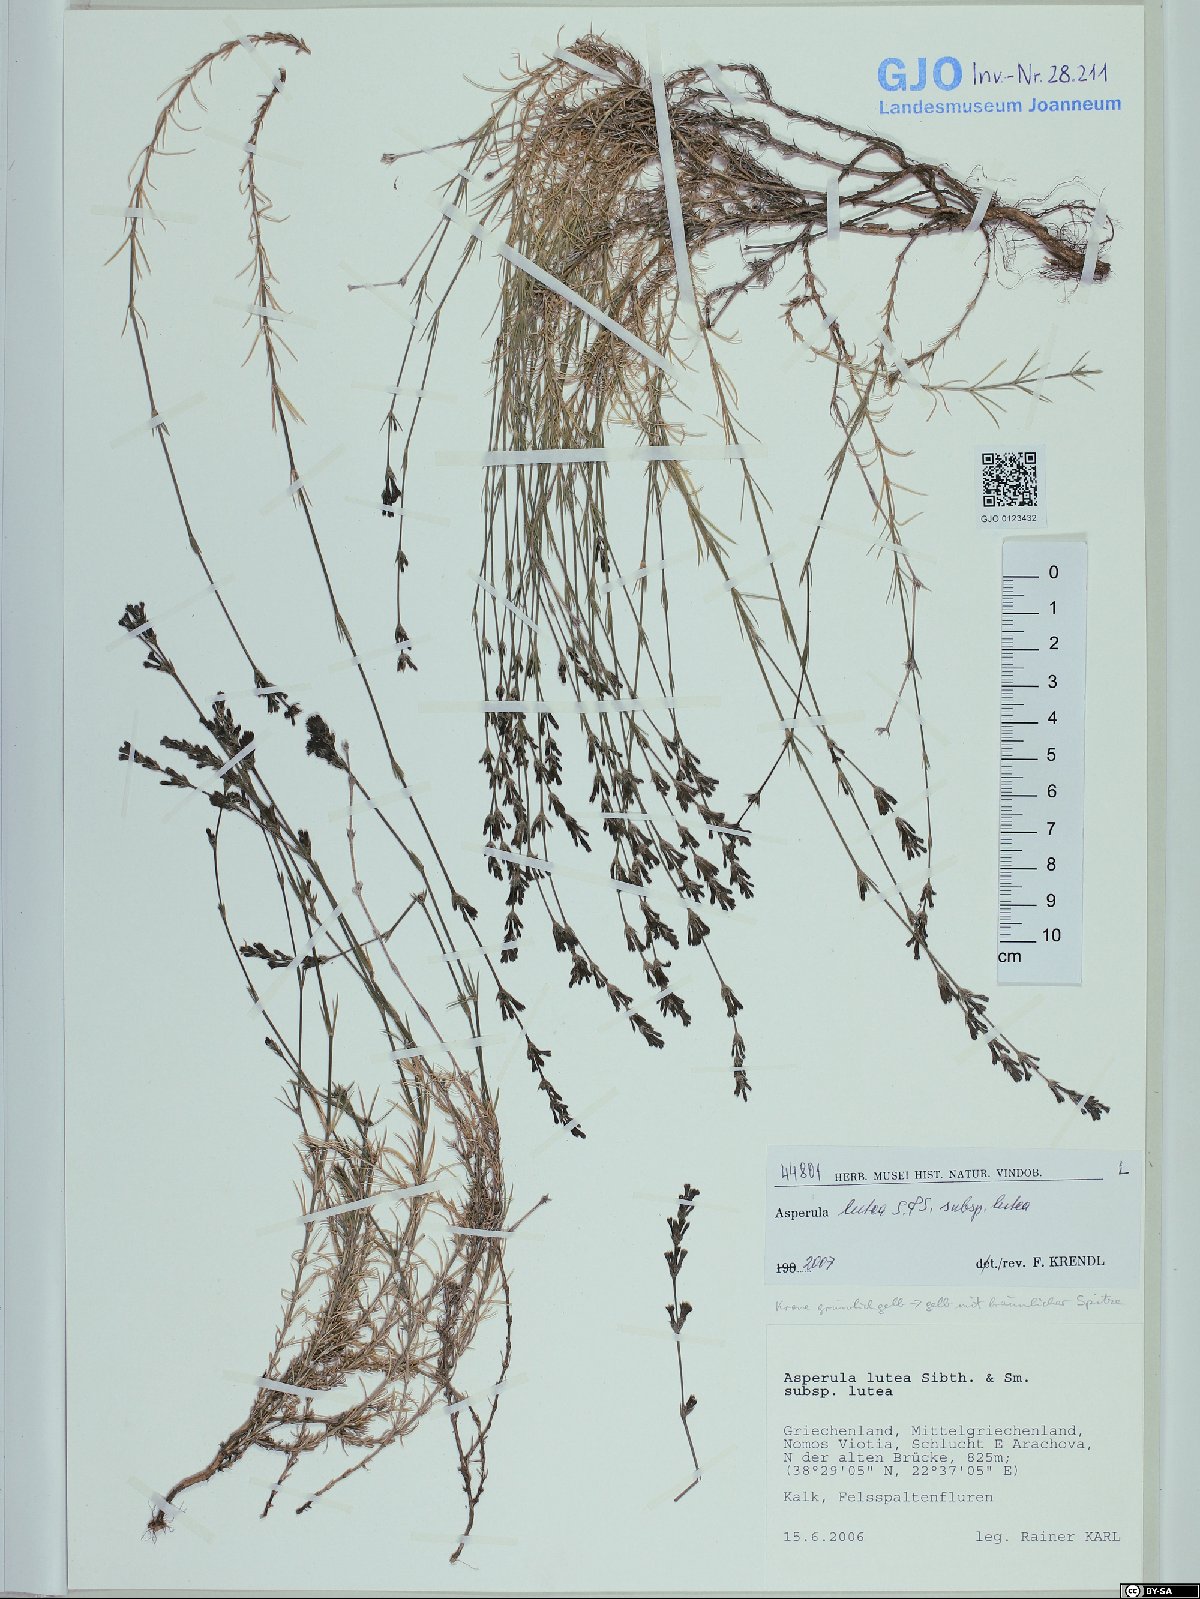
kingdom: Plantae
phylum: Tracheophyta
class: Magnoliopsida
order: Gentianales
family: Rubiaceae
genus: Cynanchica
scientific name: Cynanchica lutea
